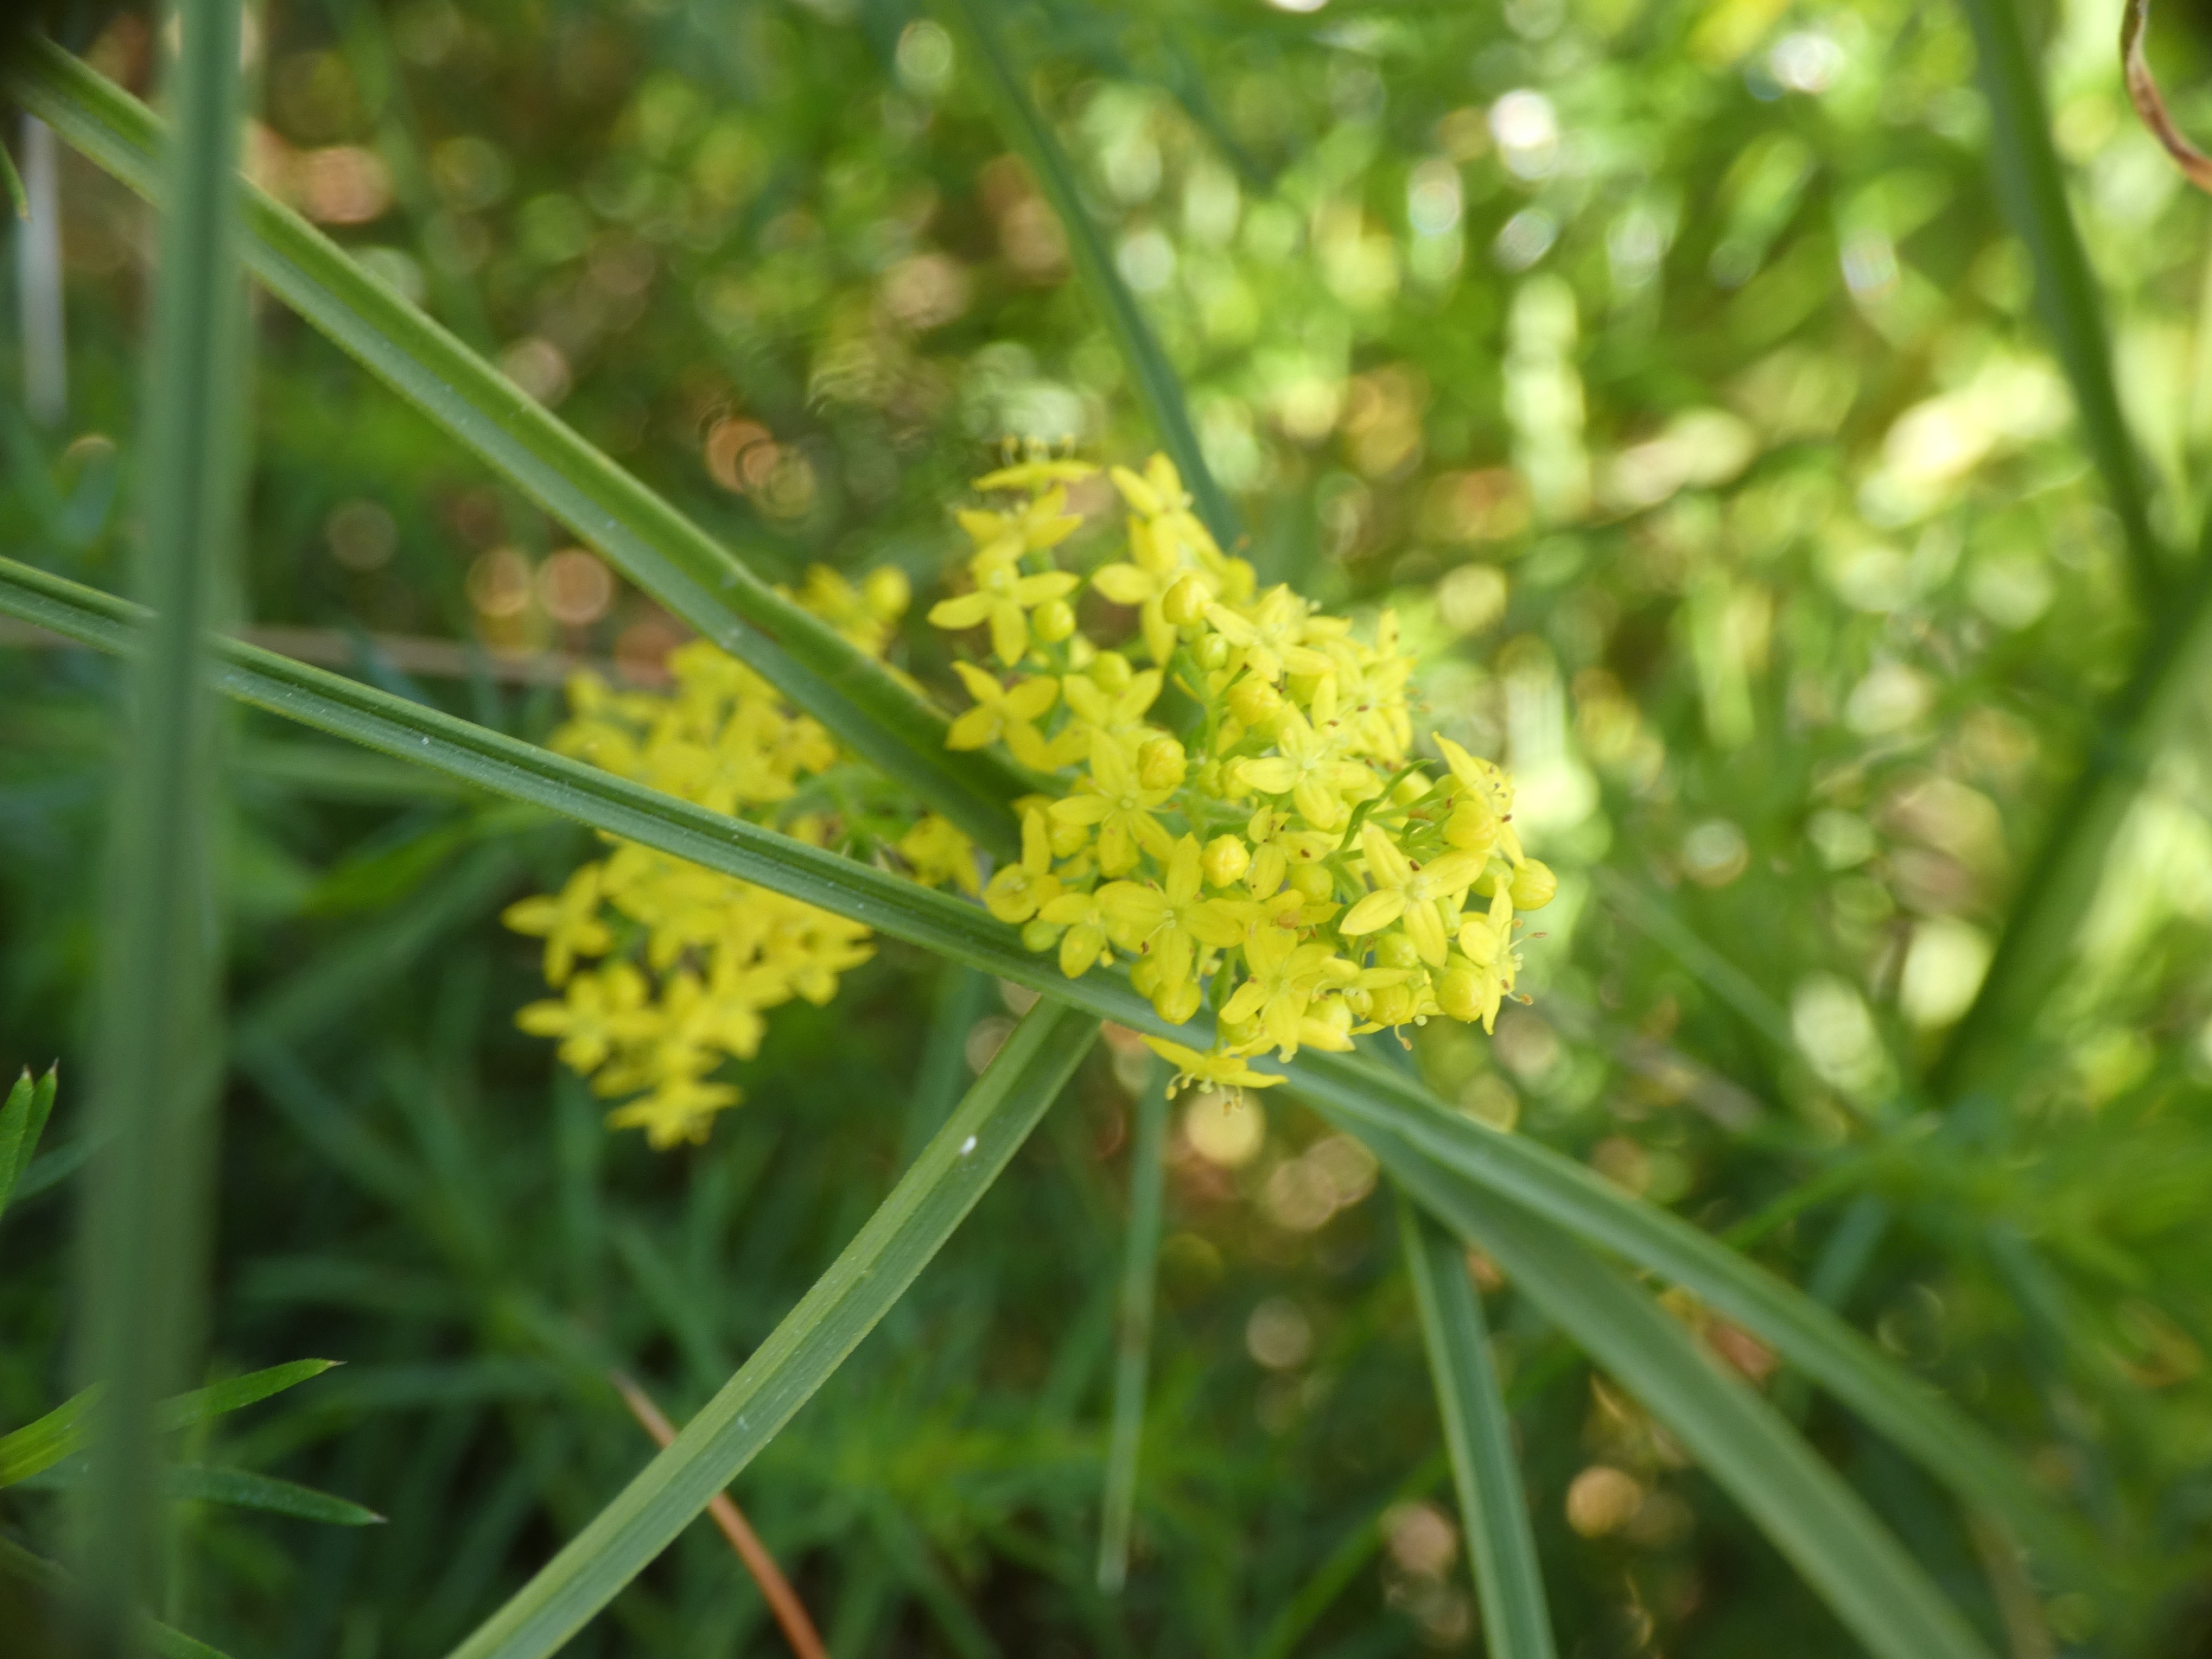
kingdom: Plantae
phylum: Tracheophyta
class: Magnoliopsida
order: Gentianales
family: Rubiaceae
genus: Galium
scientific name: Galium verum
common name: Gul snerre
